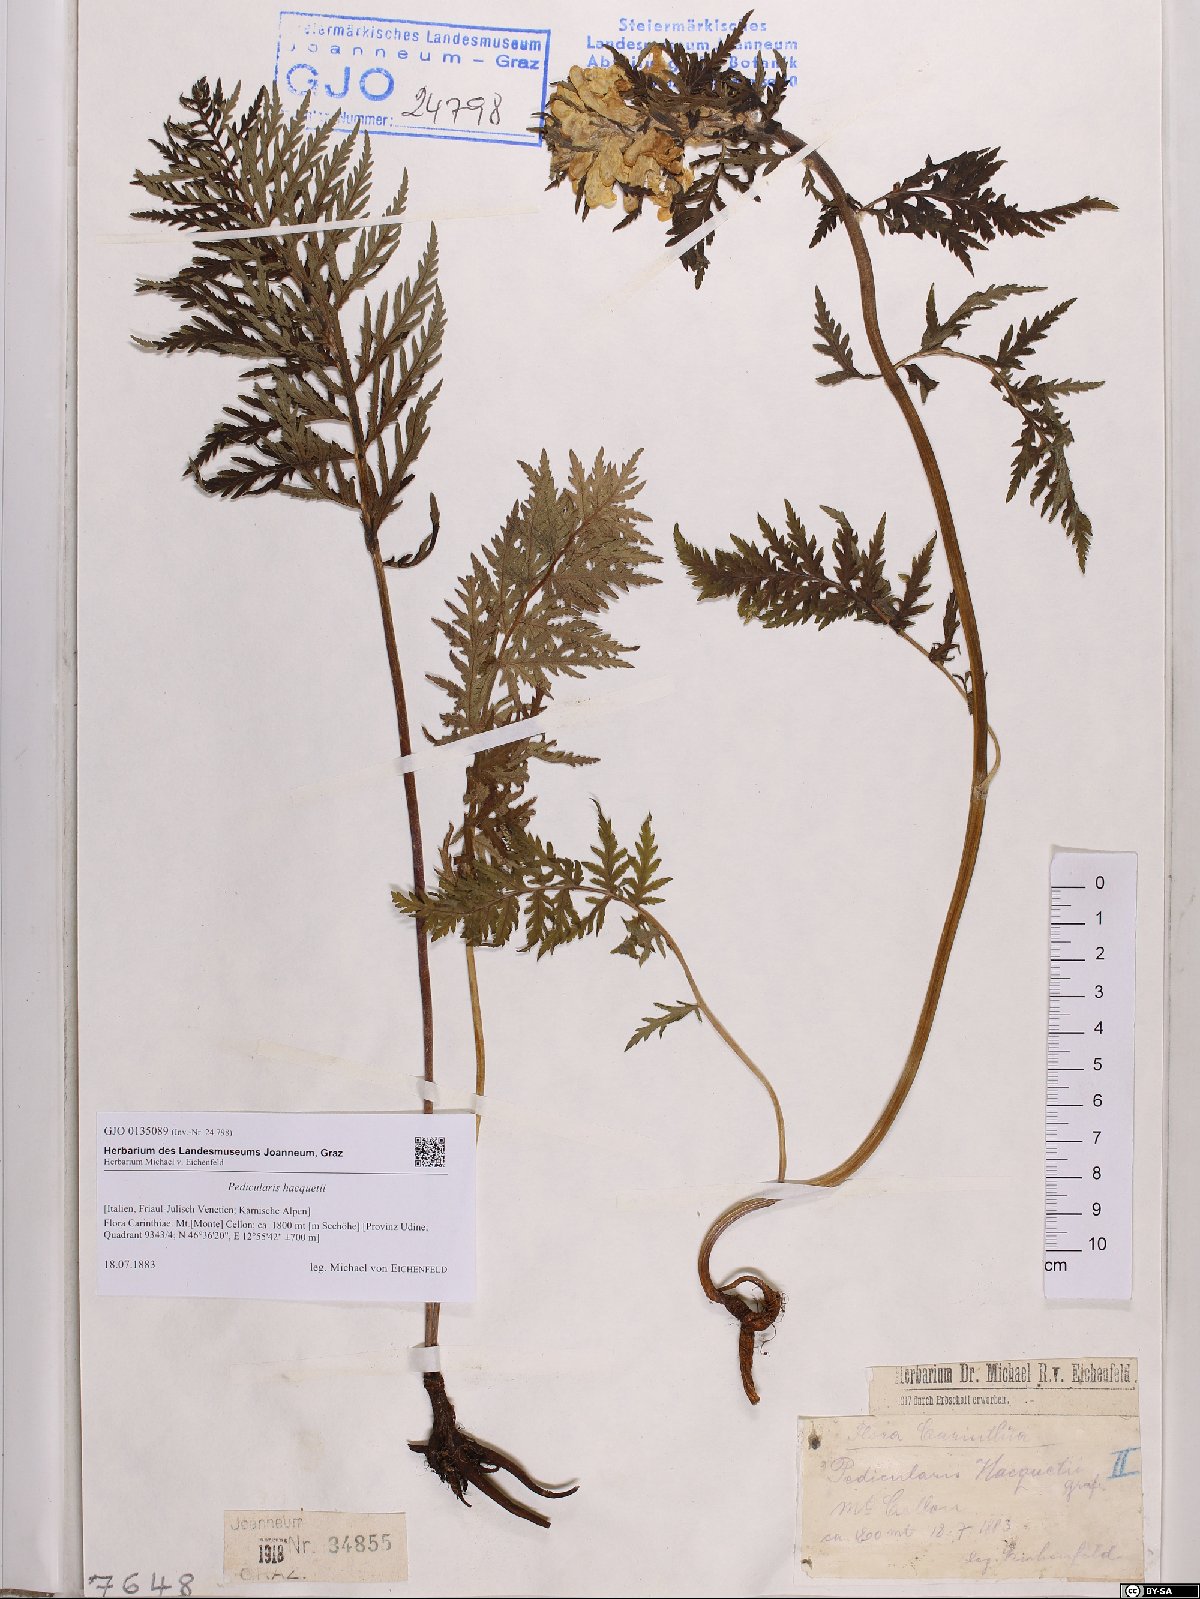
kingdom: Plantae
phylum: Tracheophyta
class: Magnoliopsida
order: Lamiales
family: Orobanchaceae
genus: Pedicularis
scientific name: Pedicularis hacquetii
